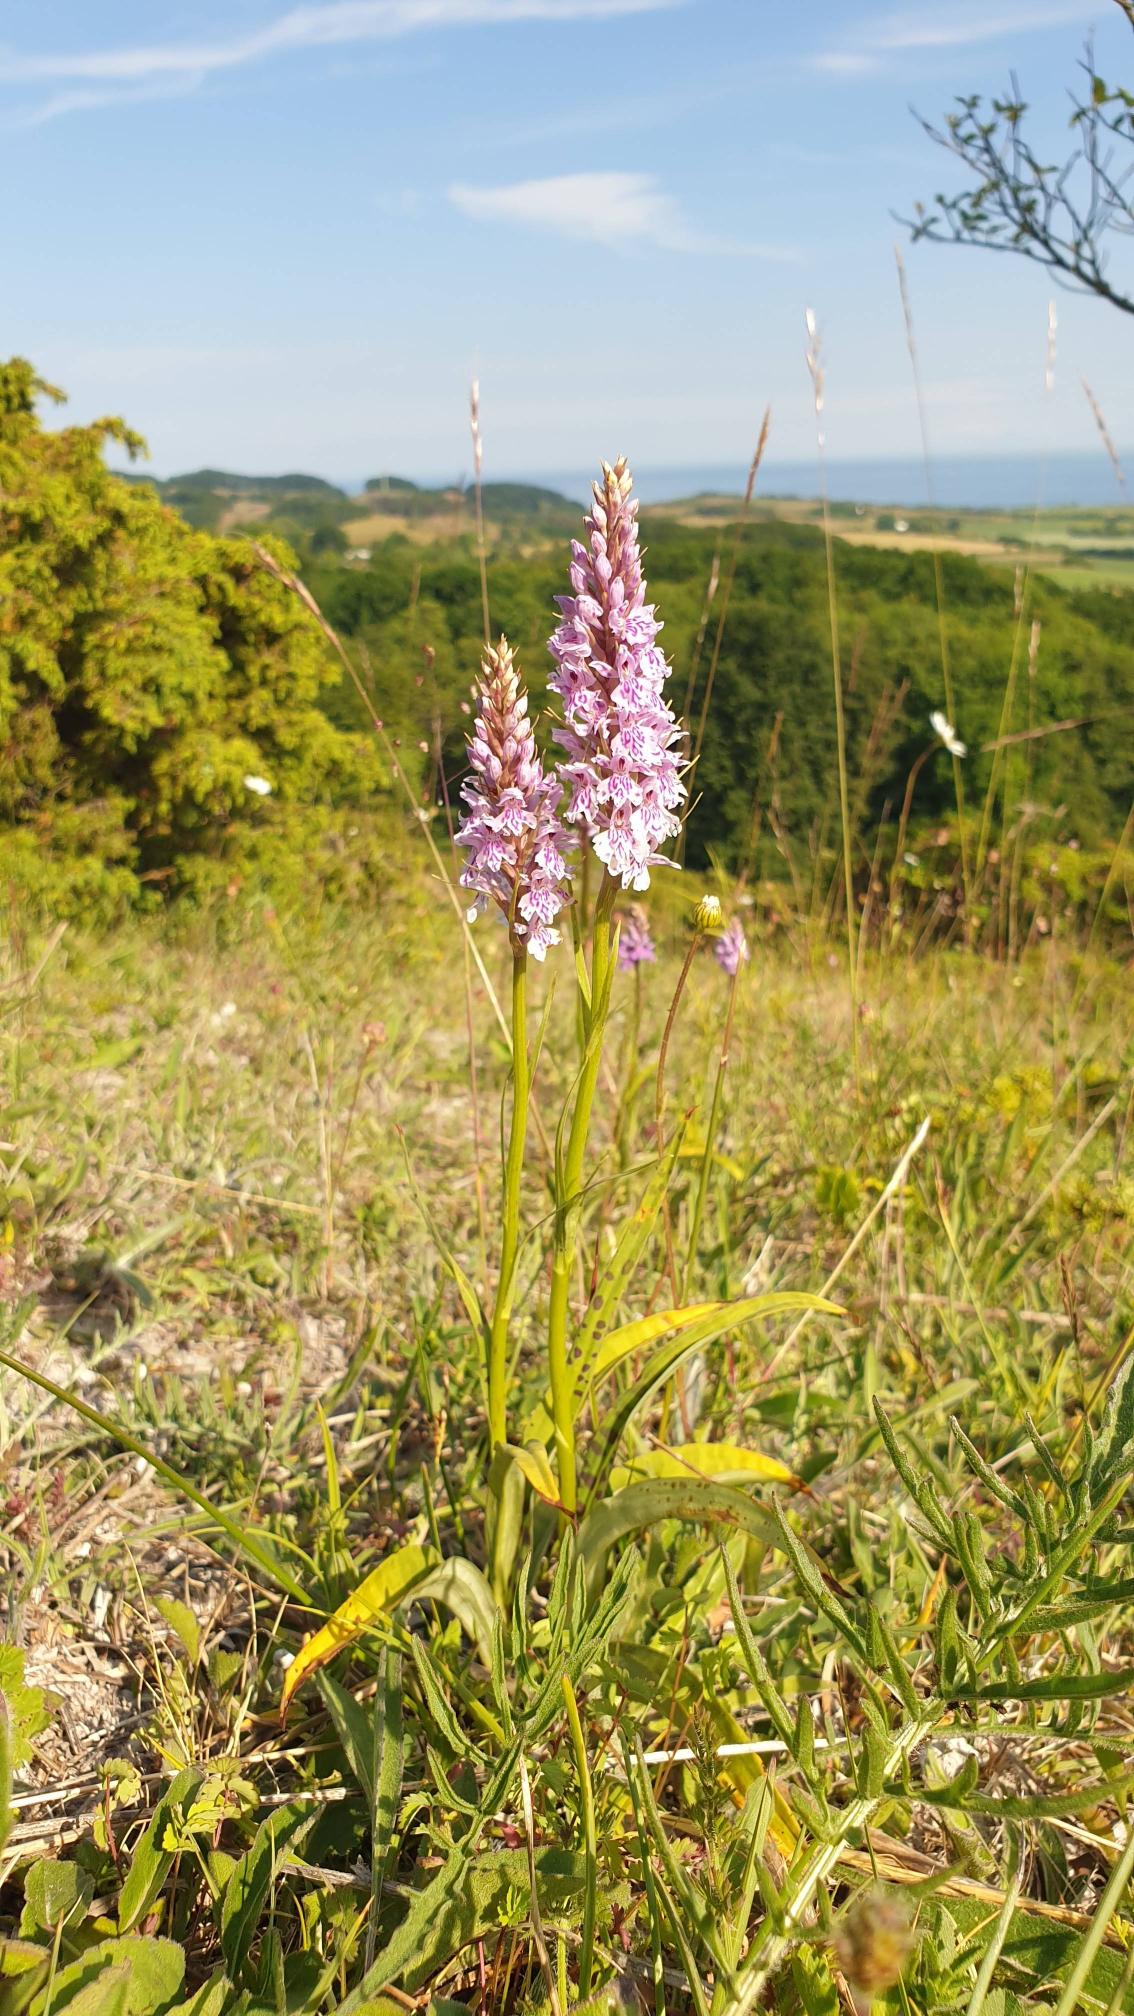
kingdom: Plantae
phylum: Tracheophyta
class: Liliopsida
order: Asparagales
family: Orchidaceae
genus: Dactylorhiza
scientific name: Dactylorhiza maculata
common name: Skov-gøgeurt
